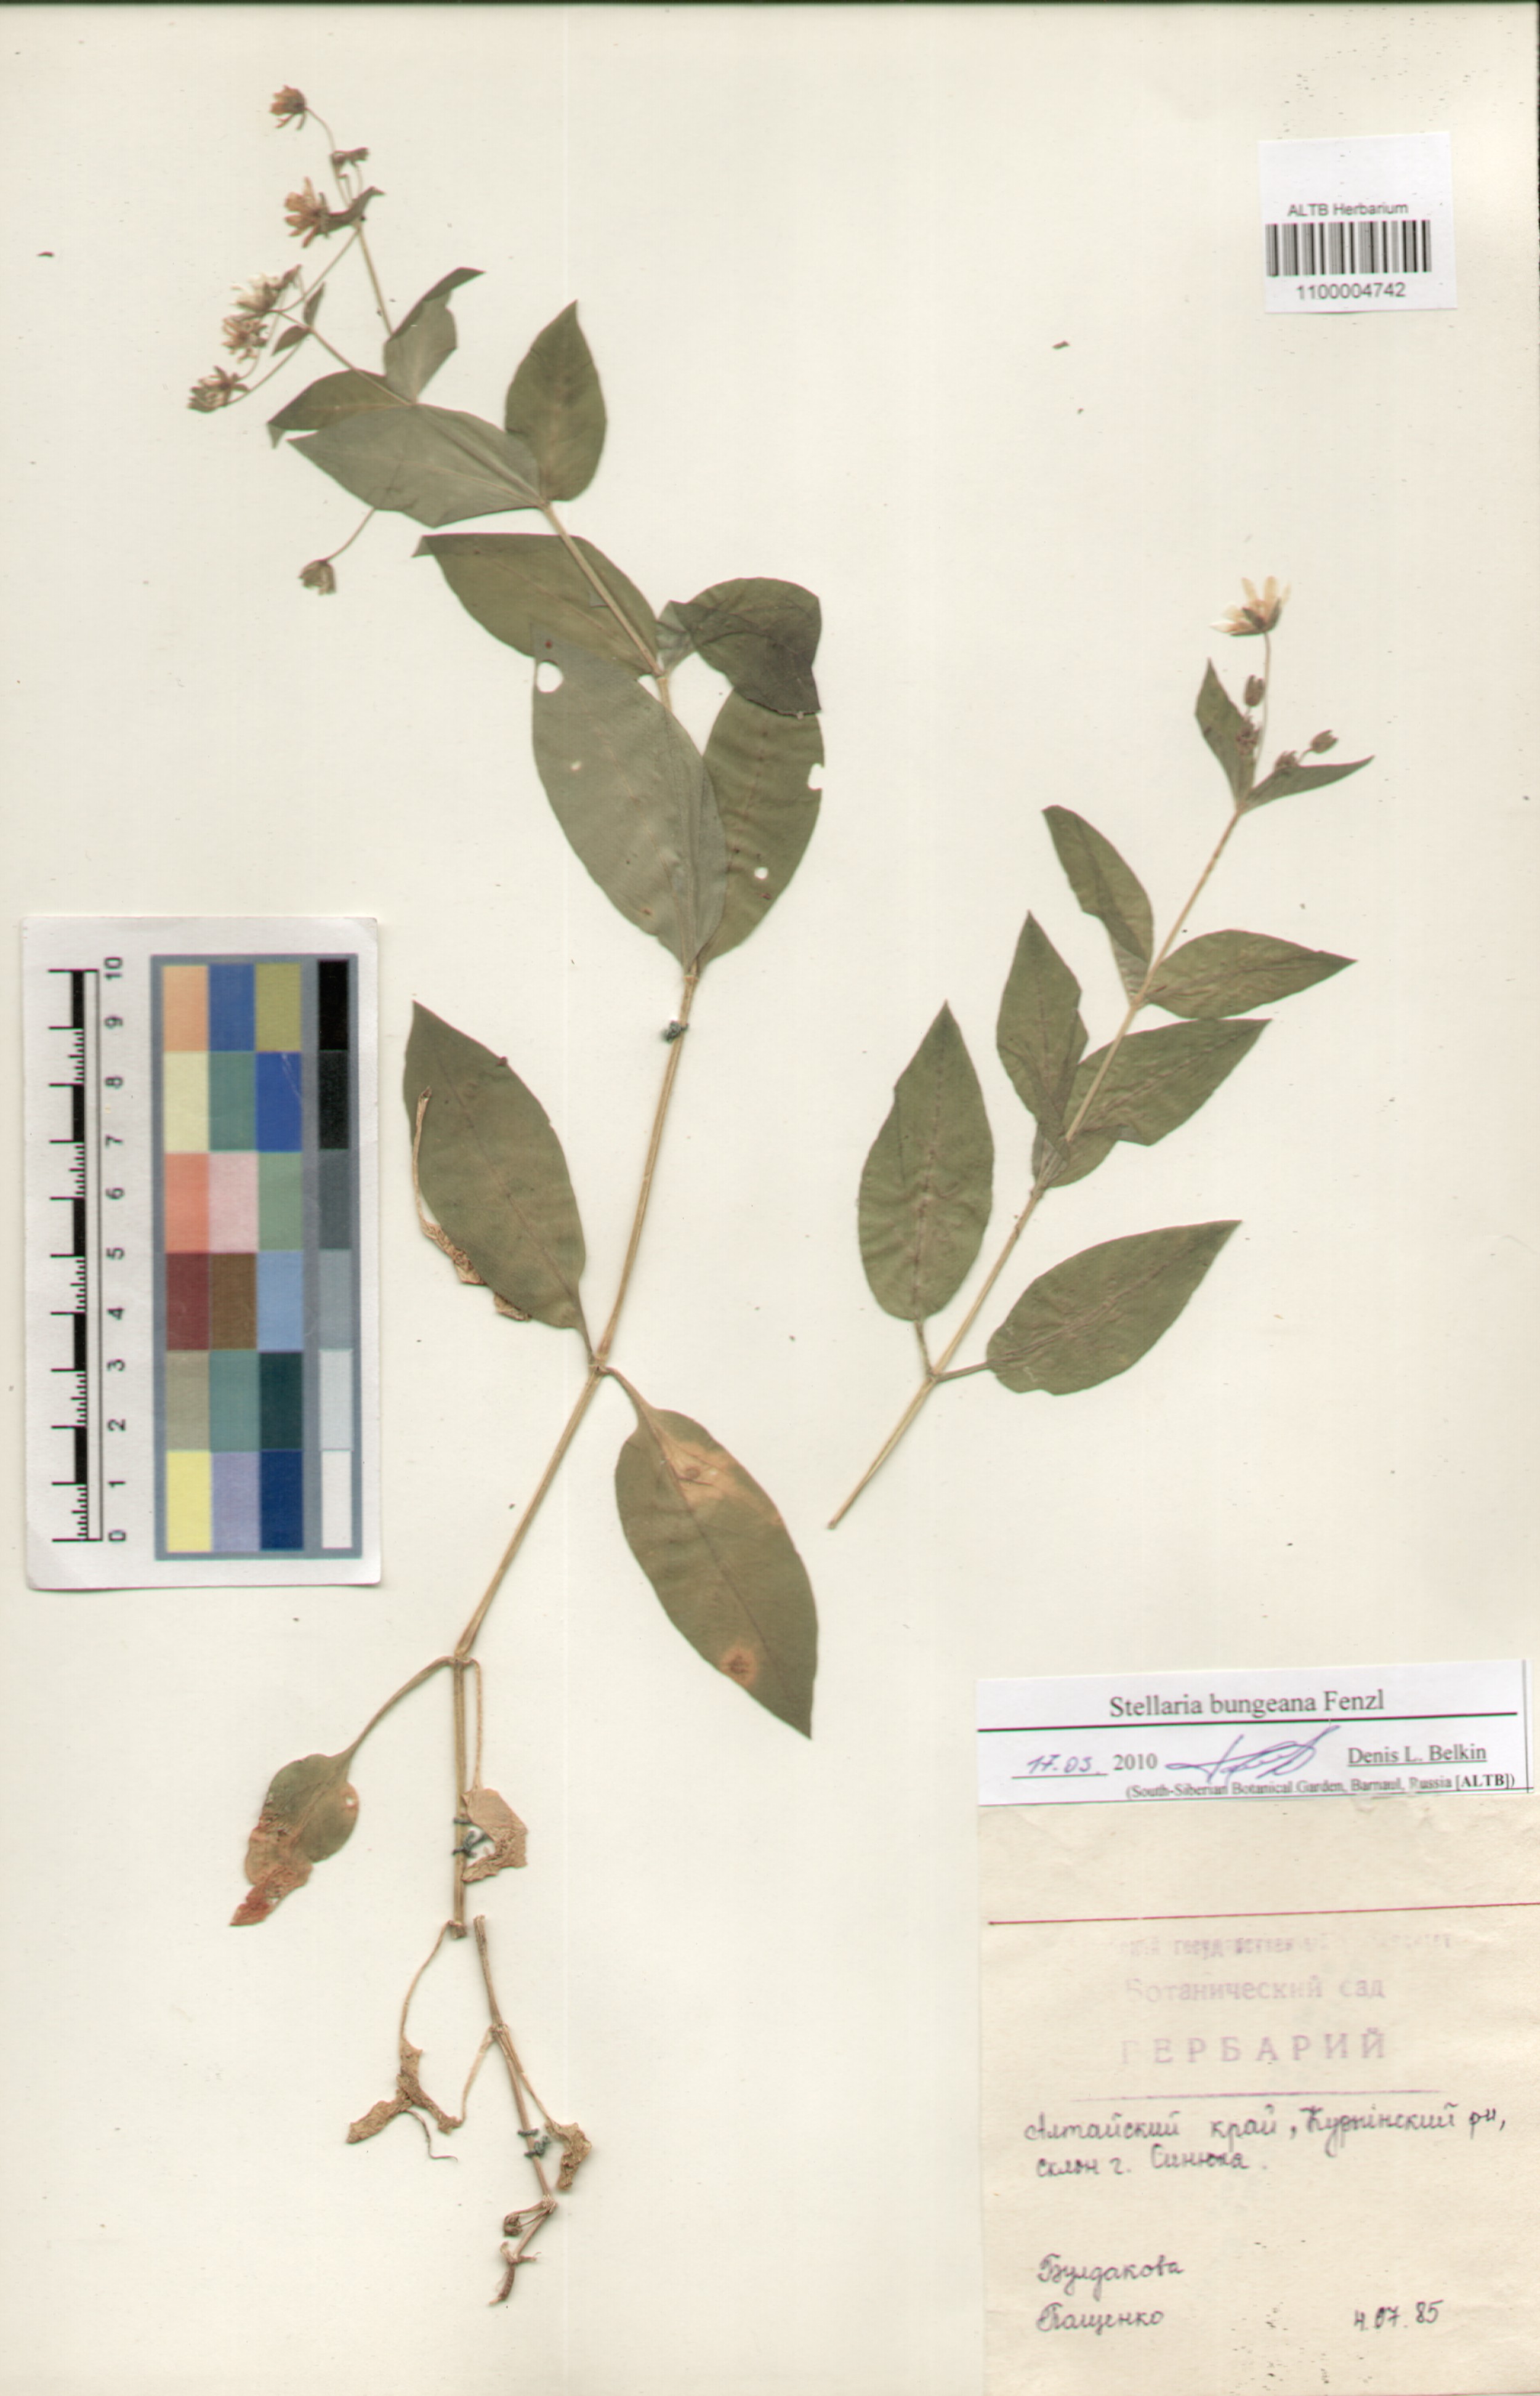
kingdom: Plantae
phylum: Tracheophyta
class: Magnoliopsida
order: Caryophyllales
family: Caryophyllaceae
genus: Stellaria
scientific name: Stellaria bungeana
